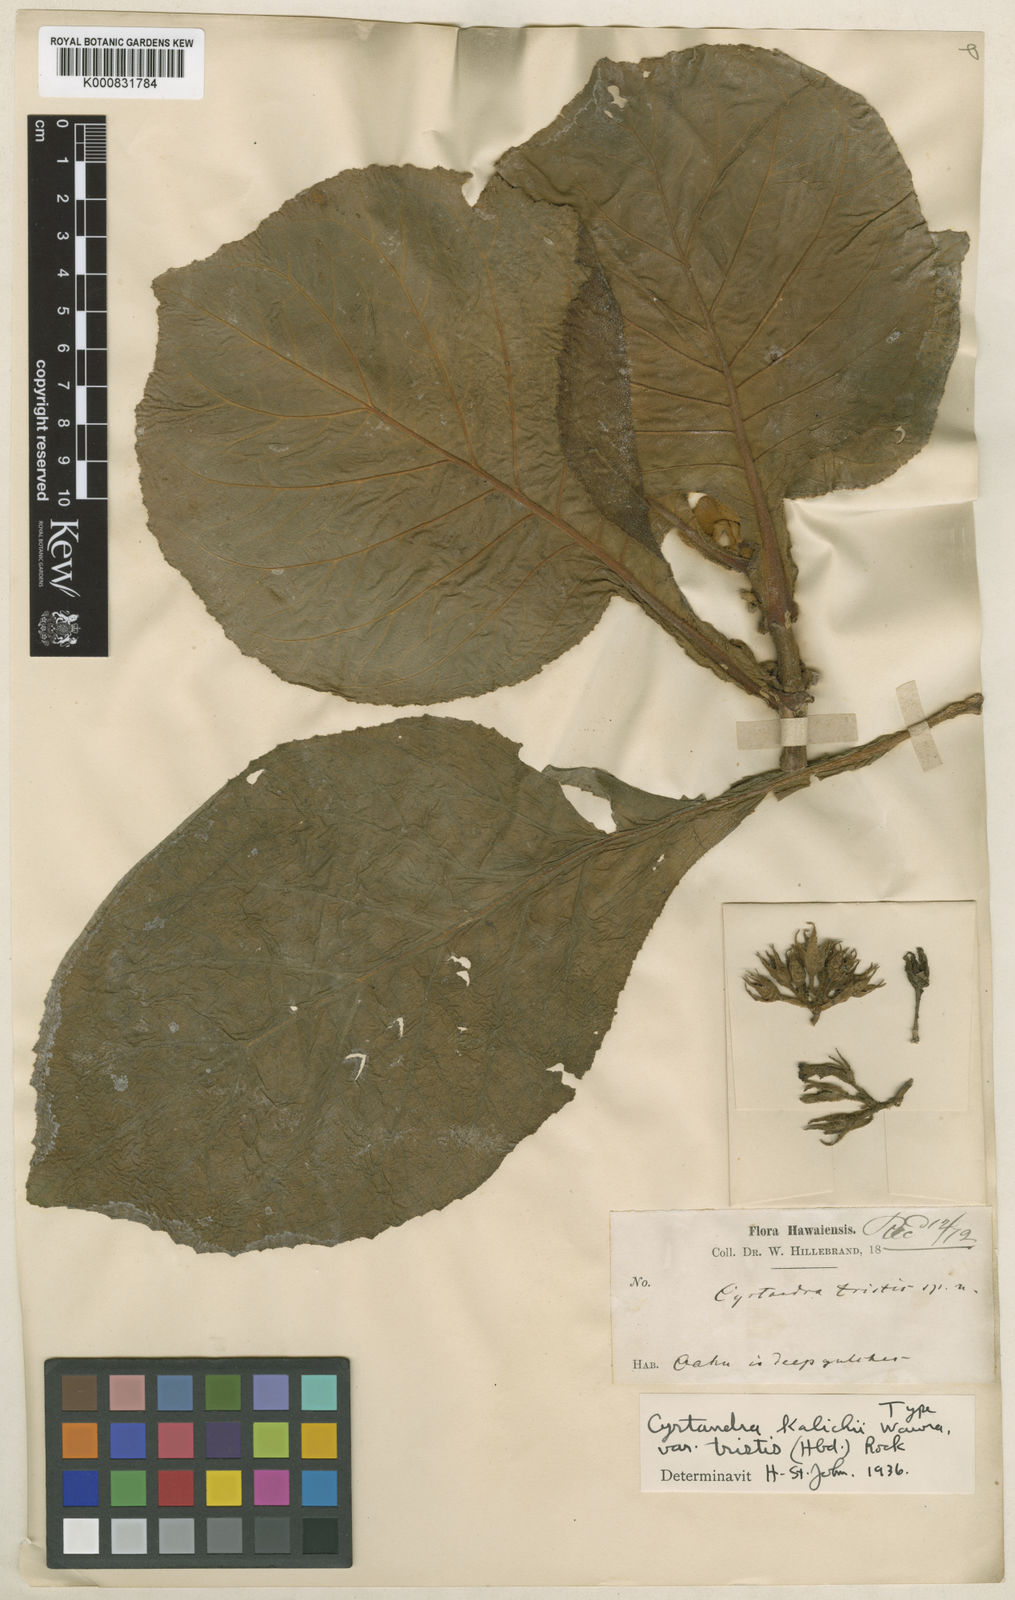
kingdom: Plantae
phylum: Tracheophyta
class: Magnoliopsida
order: Lamiales
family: Gesneriaceae
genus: Cyrtandra
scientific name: Cyrtandra
